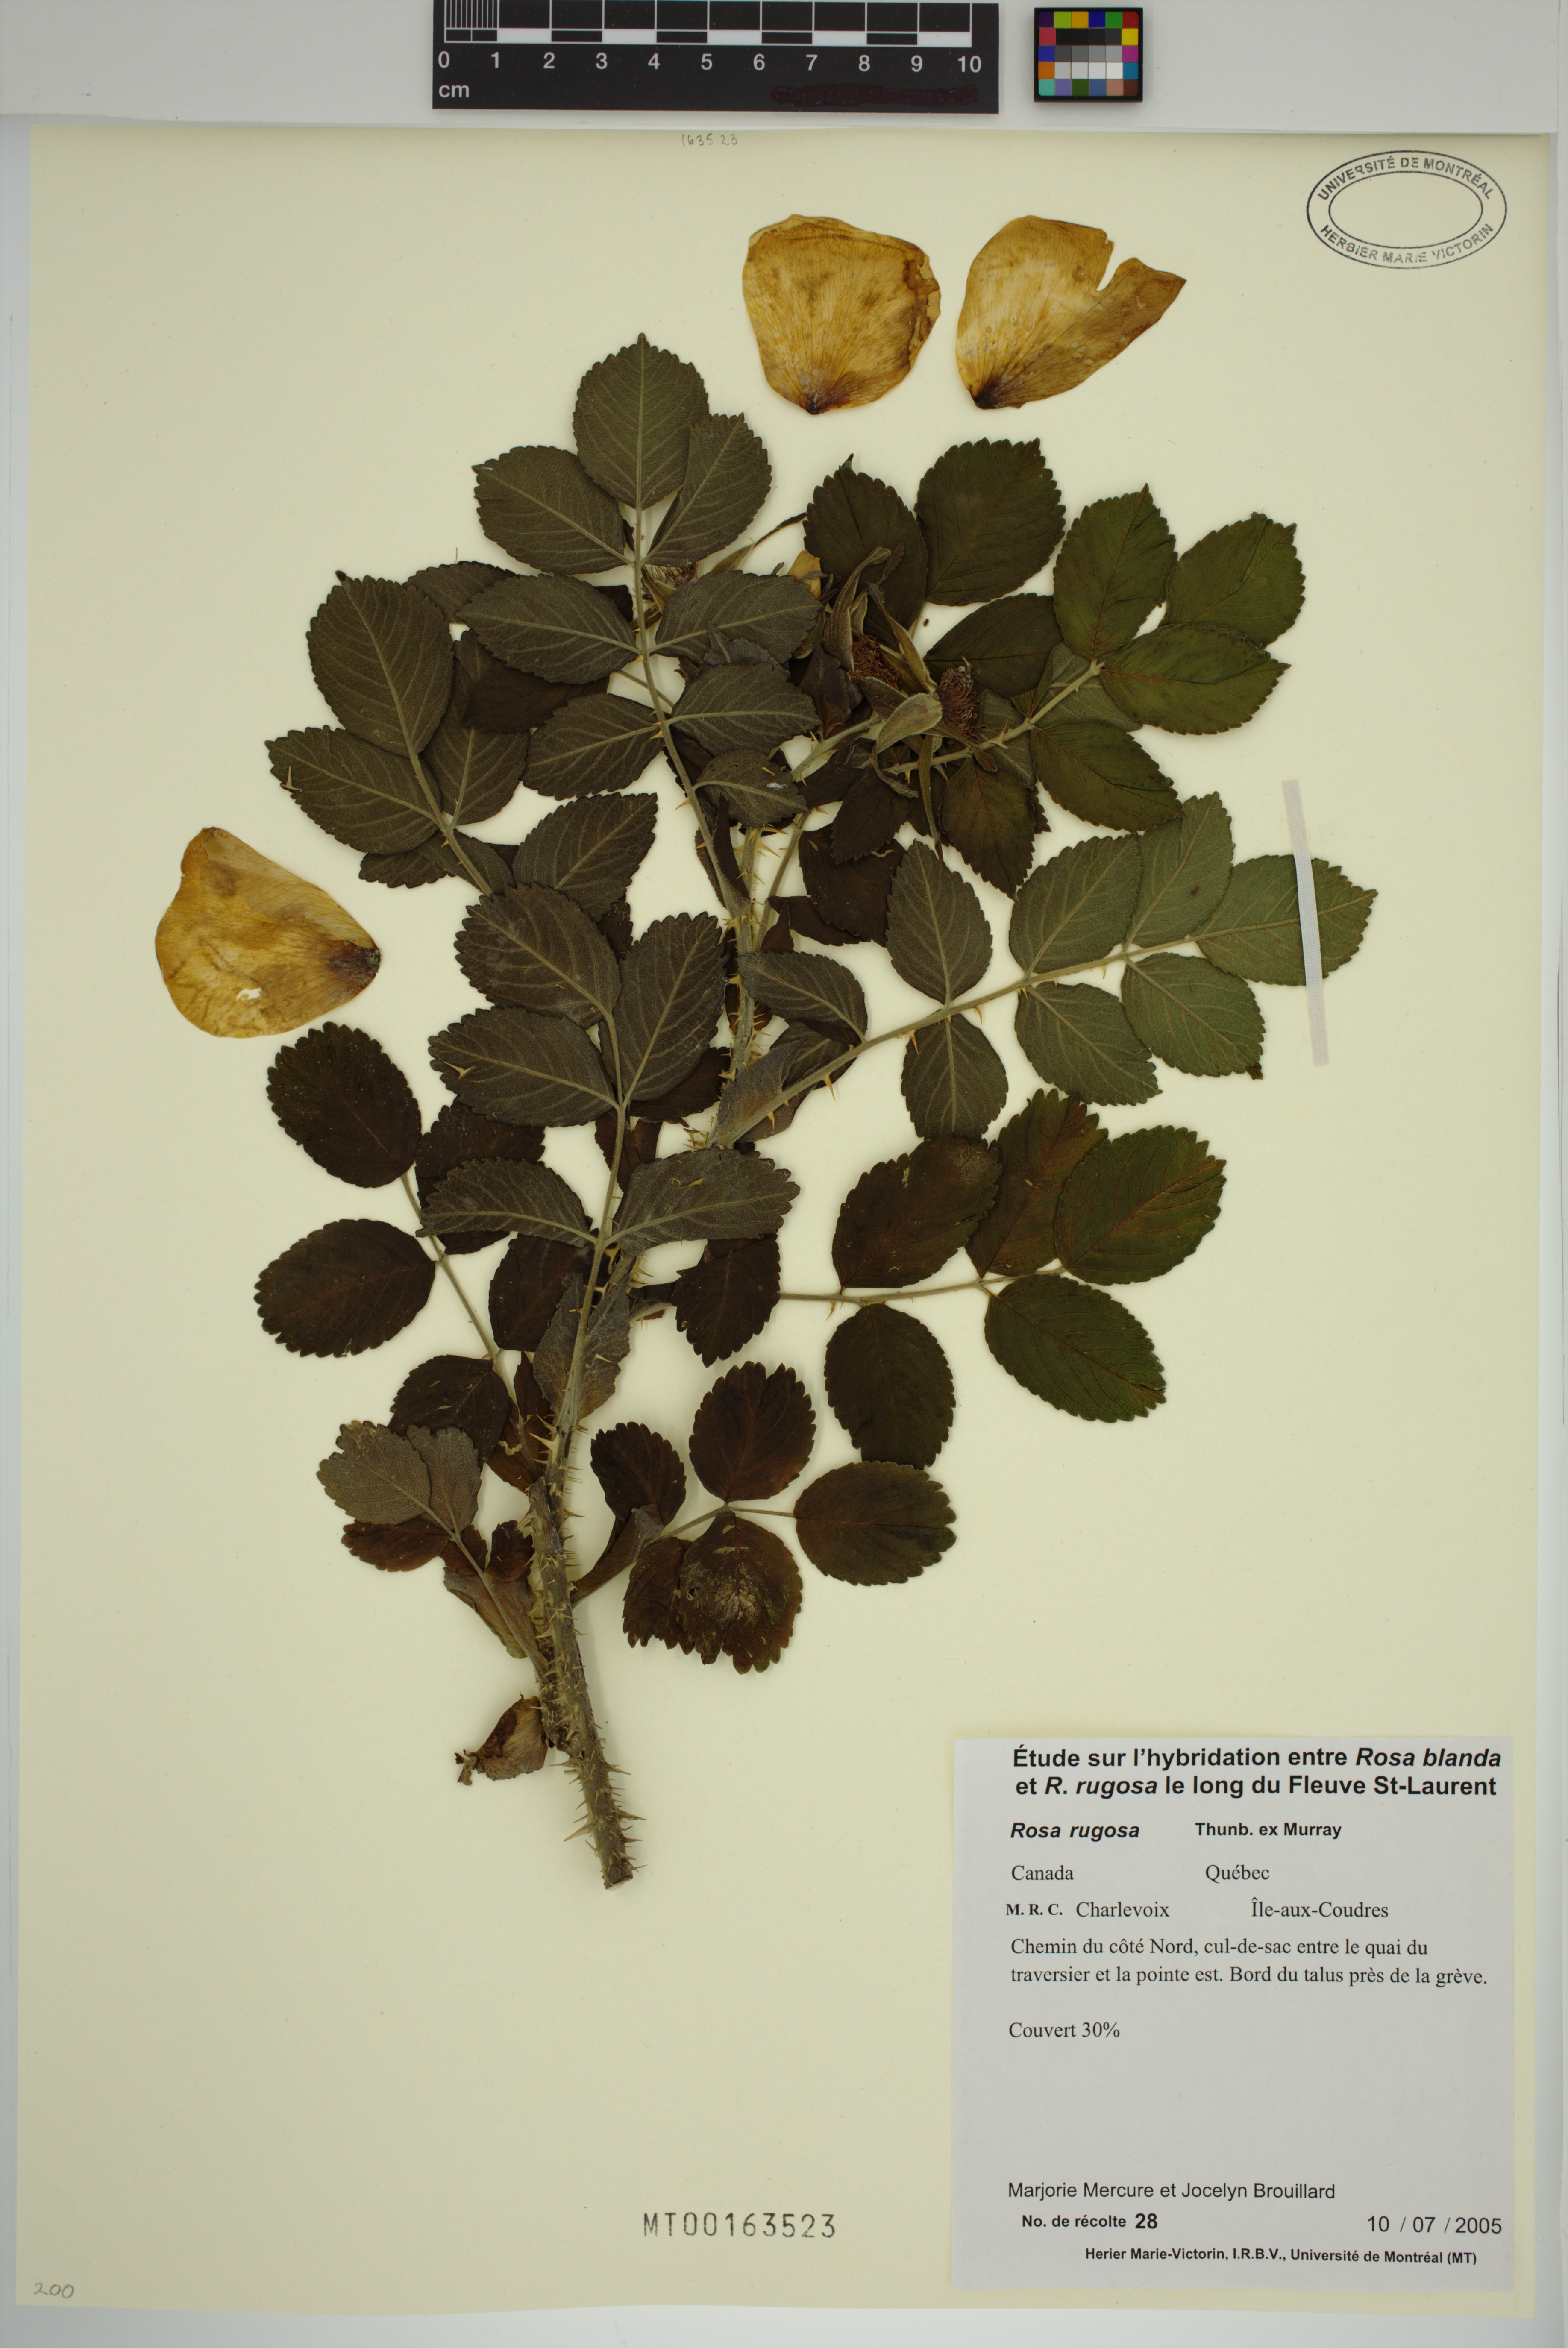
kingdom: Plantae
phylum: Tracheophyta
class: Magnoliopsida
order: Rosales
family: Rosaceae
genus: Rosa
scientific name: Rosa rugosa
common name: Japanese rose
